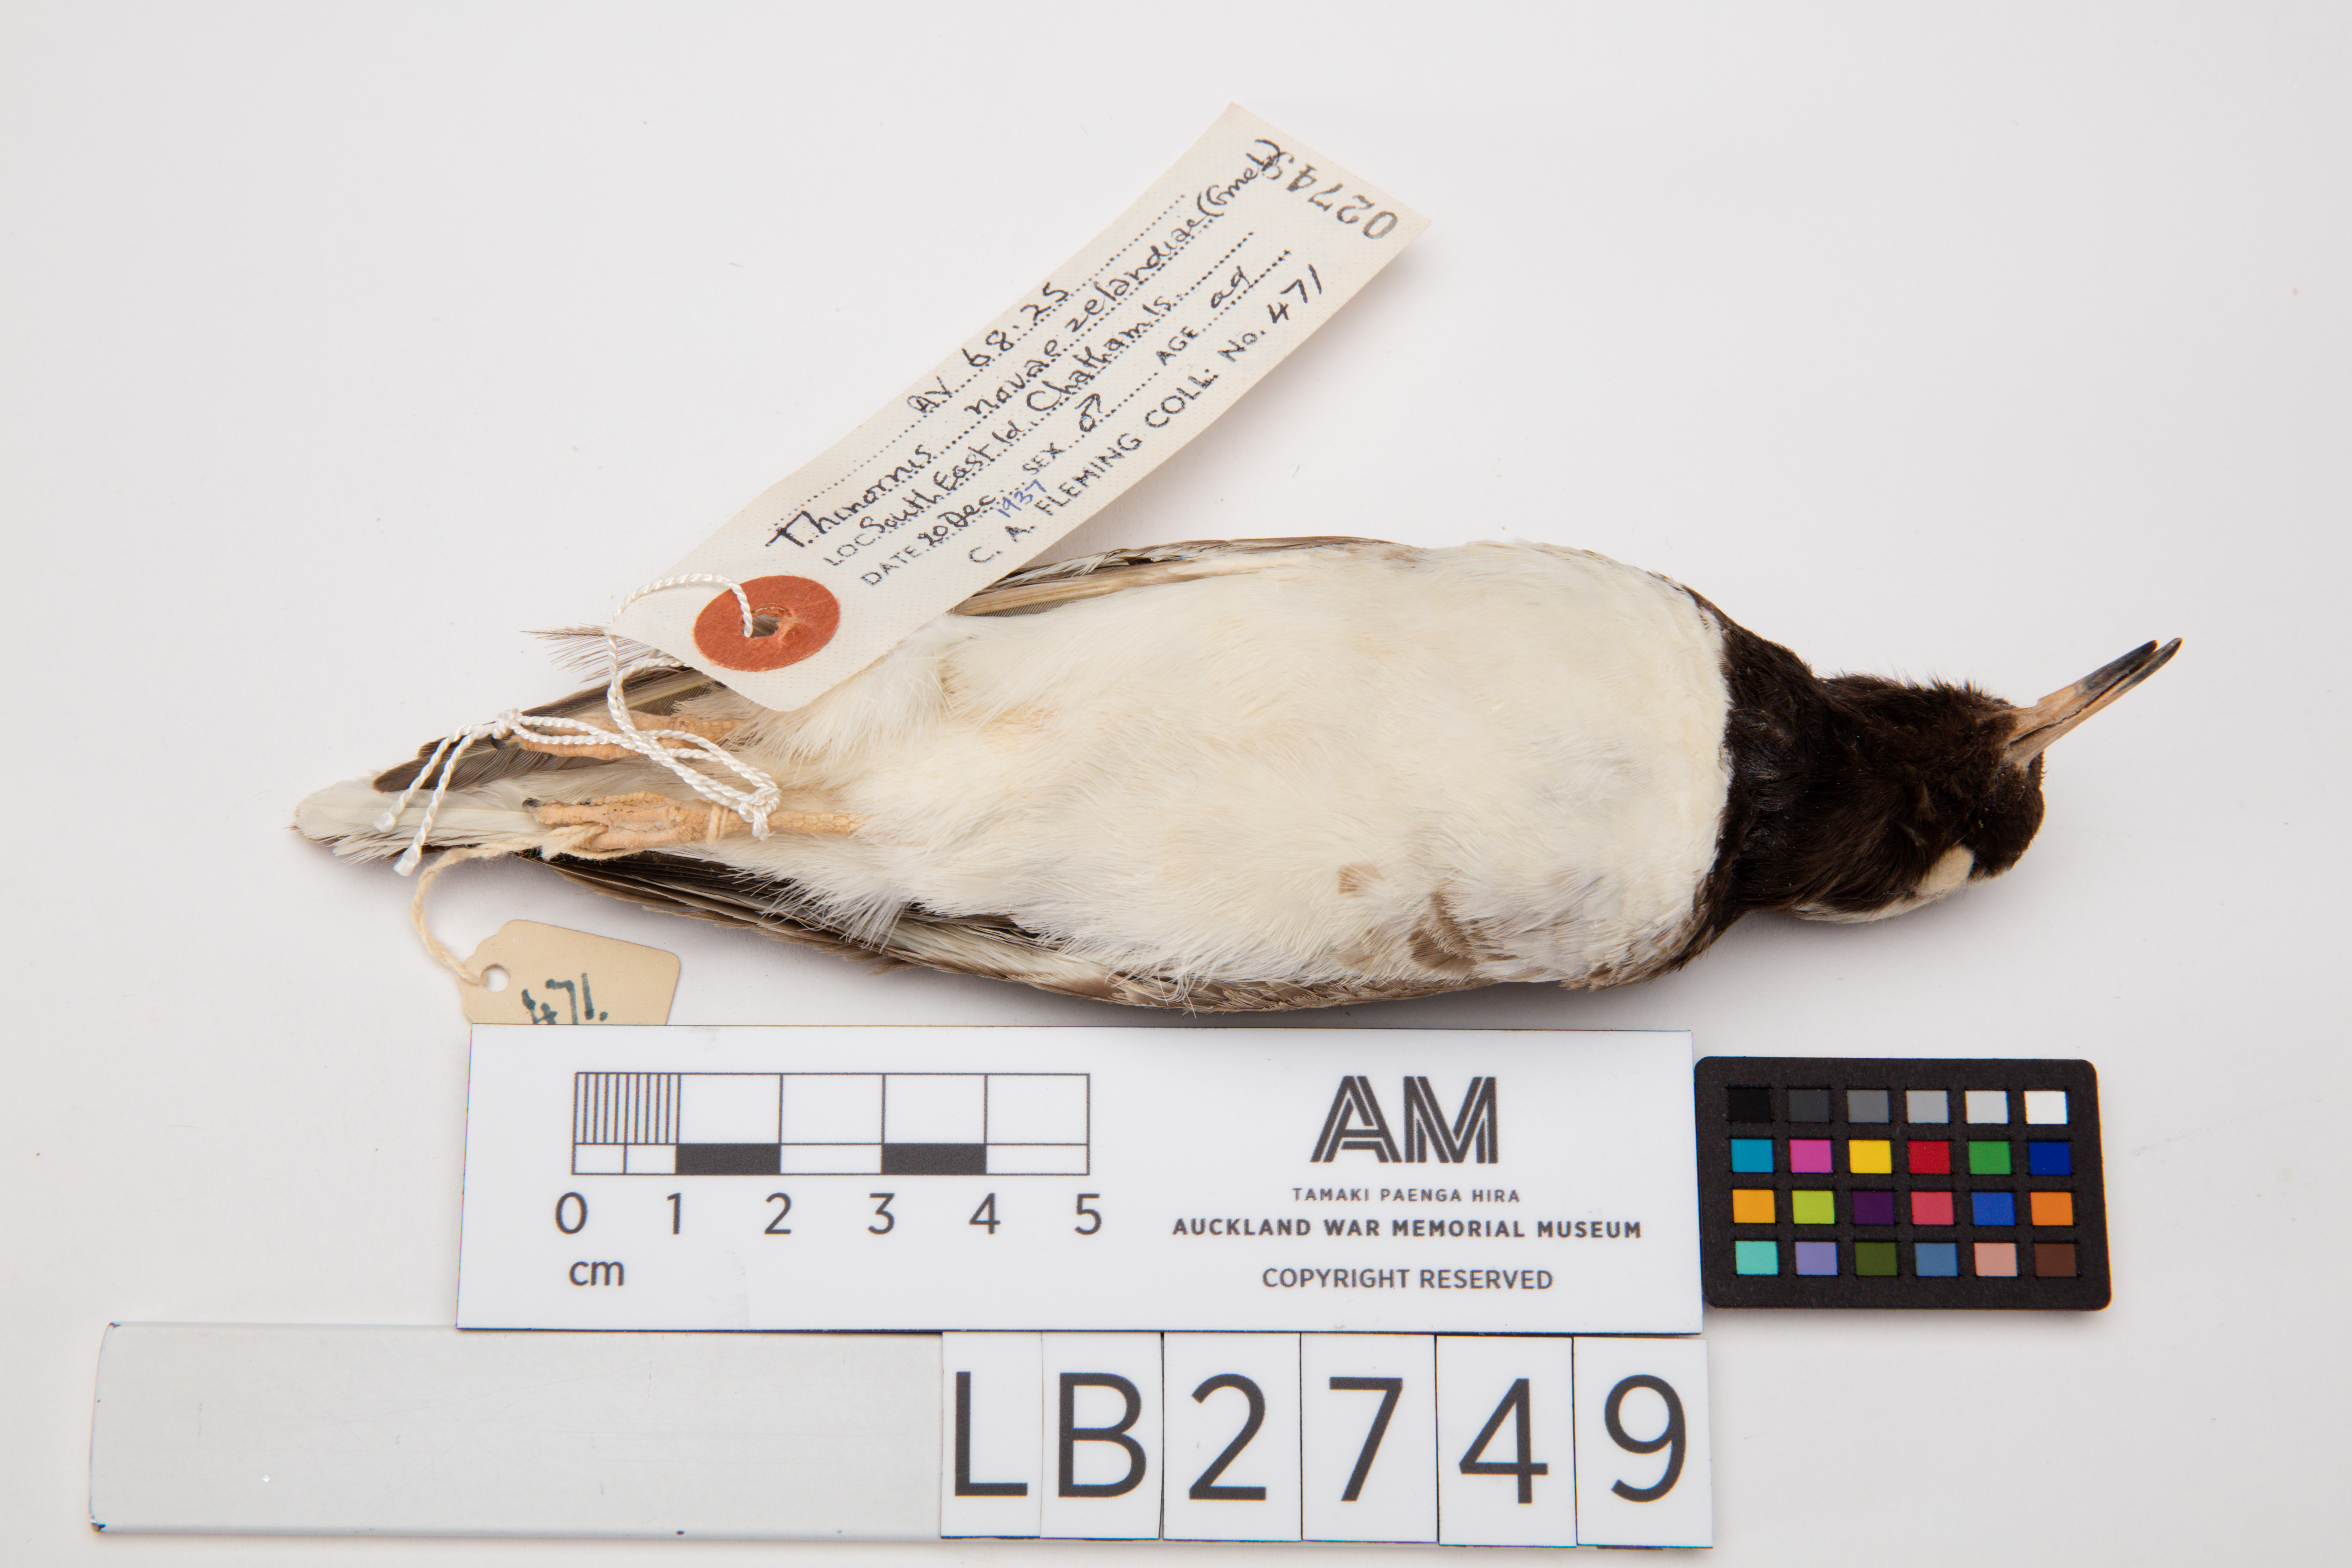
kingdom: Animalia
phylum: Chordata
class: Aves
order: Charadriiformes
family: Charadriidae
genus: Thinornis
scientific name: Thinornis novaeseelandiae
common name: Shore dotterel
